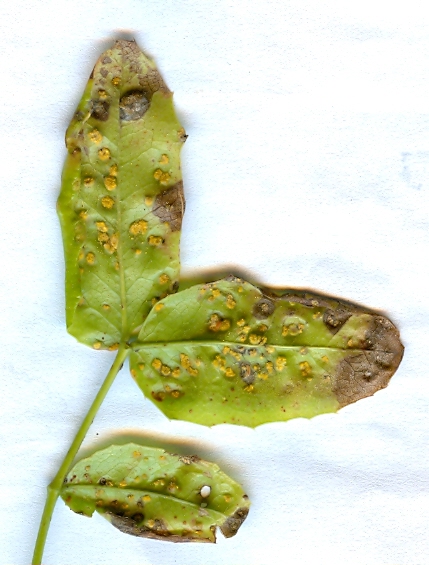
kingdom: Fungi
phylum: Basidiomycota
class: Pucciniomycetes
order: Pucciniales
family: Pucciniaceae
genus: Cumminsiella
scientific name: Cumminsiella mirabilissima
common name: mahonierust
